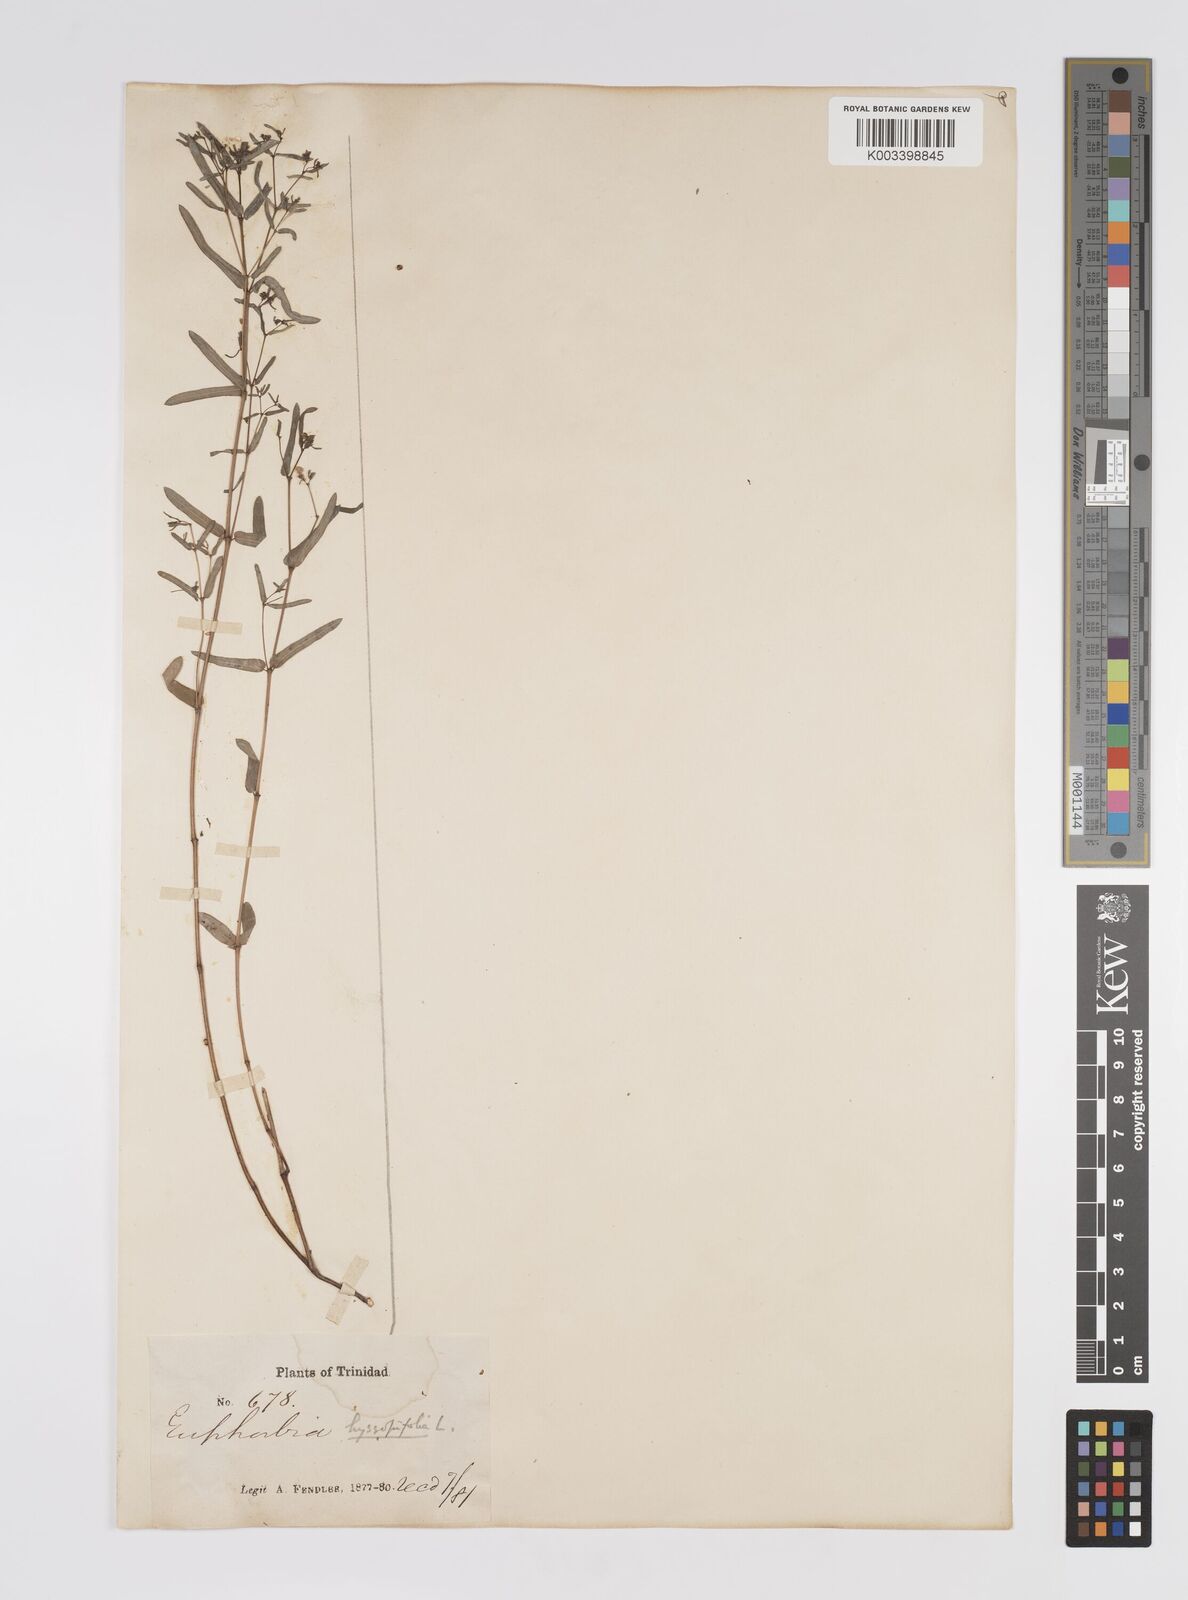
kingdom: Plantae
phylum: Tracheophyta
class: Magnoliopsida
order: Malpighiales
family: Euphorbiaceae
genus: Euphorbia
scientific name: Euphorbia hyssopifolia
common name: Hyssopleaf sandmat
